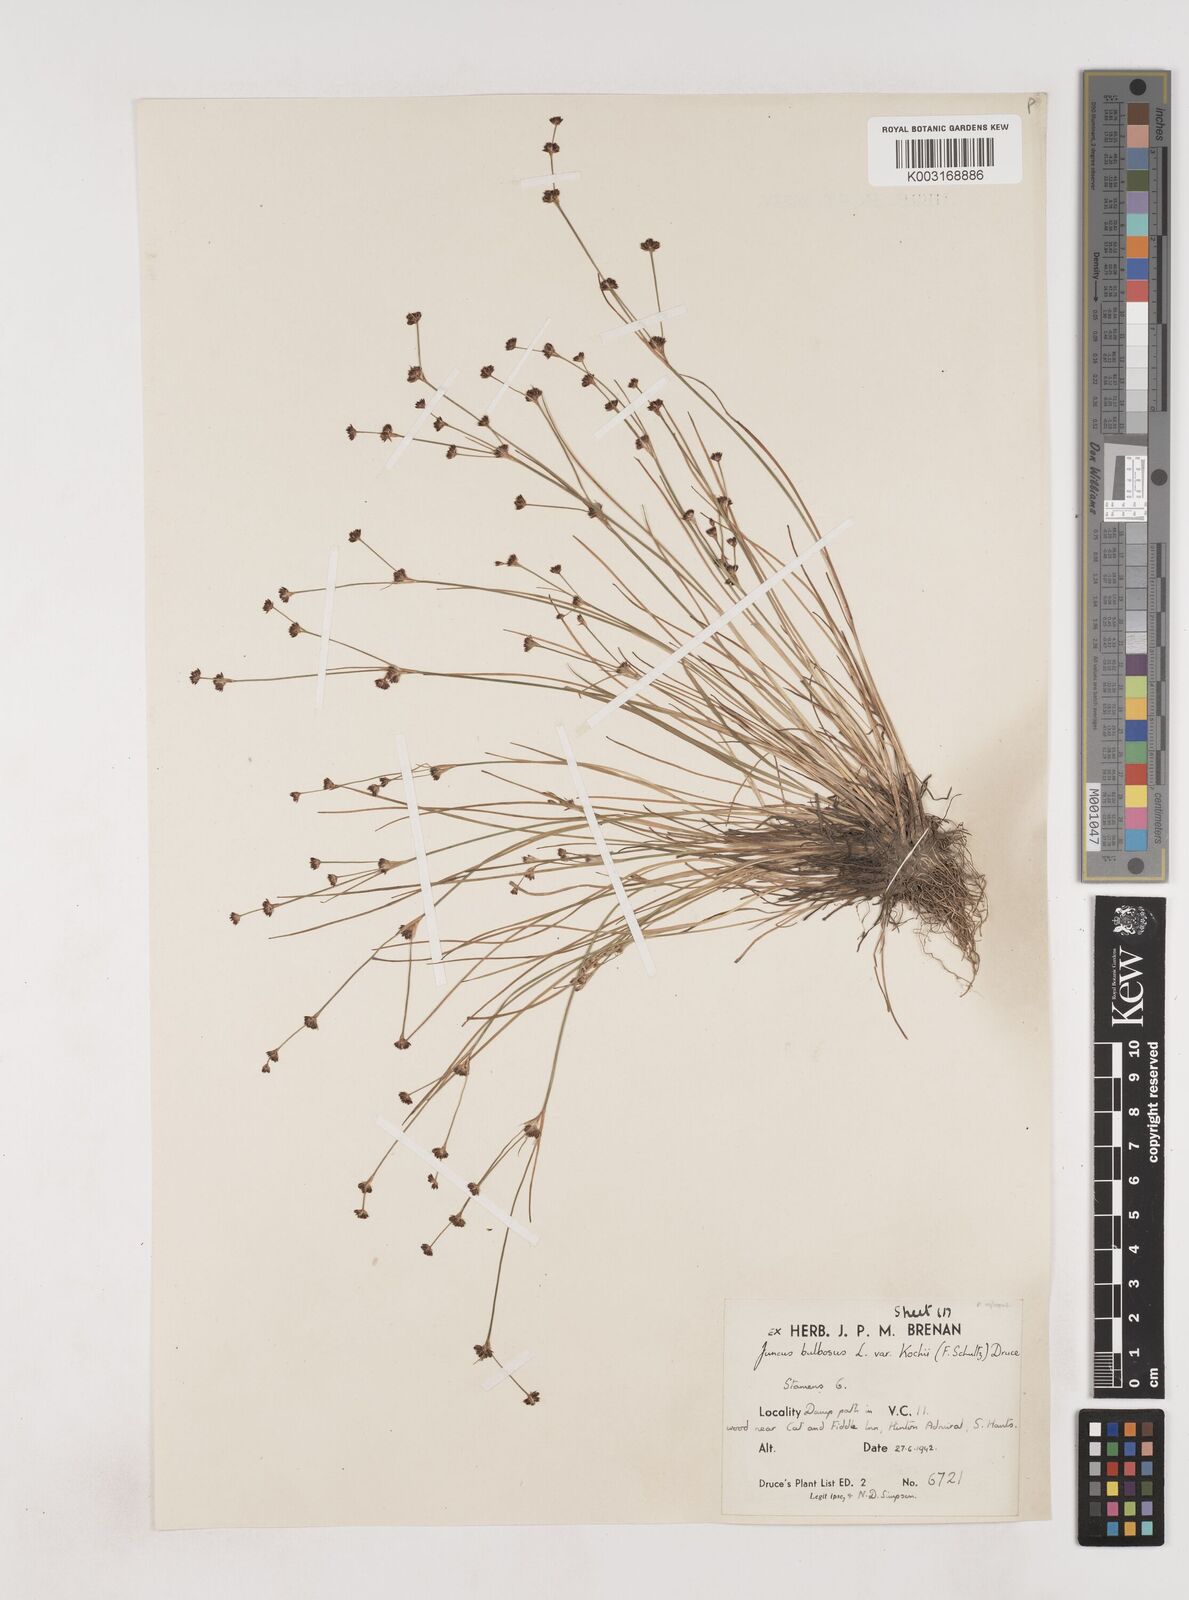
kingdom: Plantae
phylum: Tracheophyta
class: Liliopsida
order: Poales
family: Juncaceae
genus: Juncus
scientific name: Juncus bulbosus
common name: Bulbous rush
